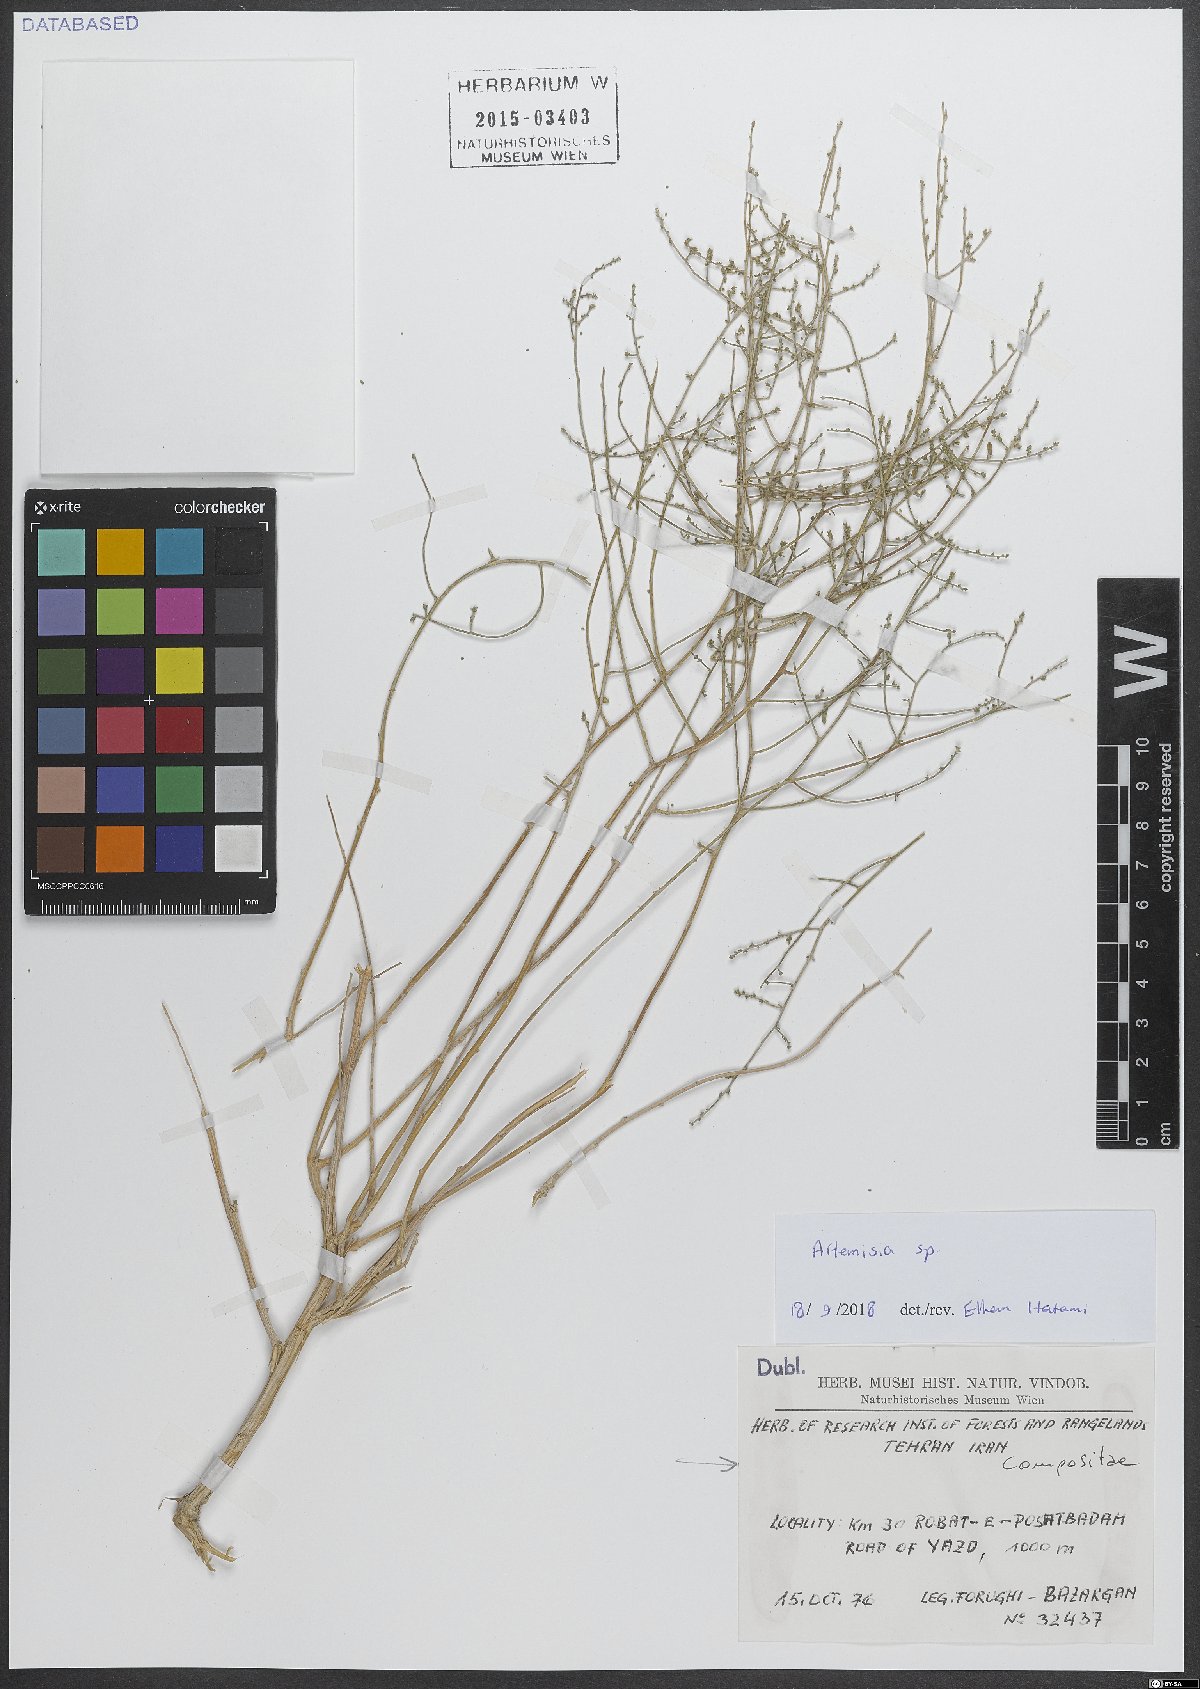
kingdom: Plantae
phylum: Tracheophyta
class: Magnoliopsida
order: Asterales
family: Asteraceae
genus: Artemisia
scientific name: Artemisia
